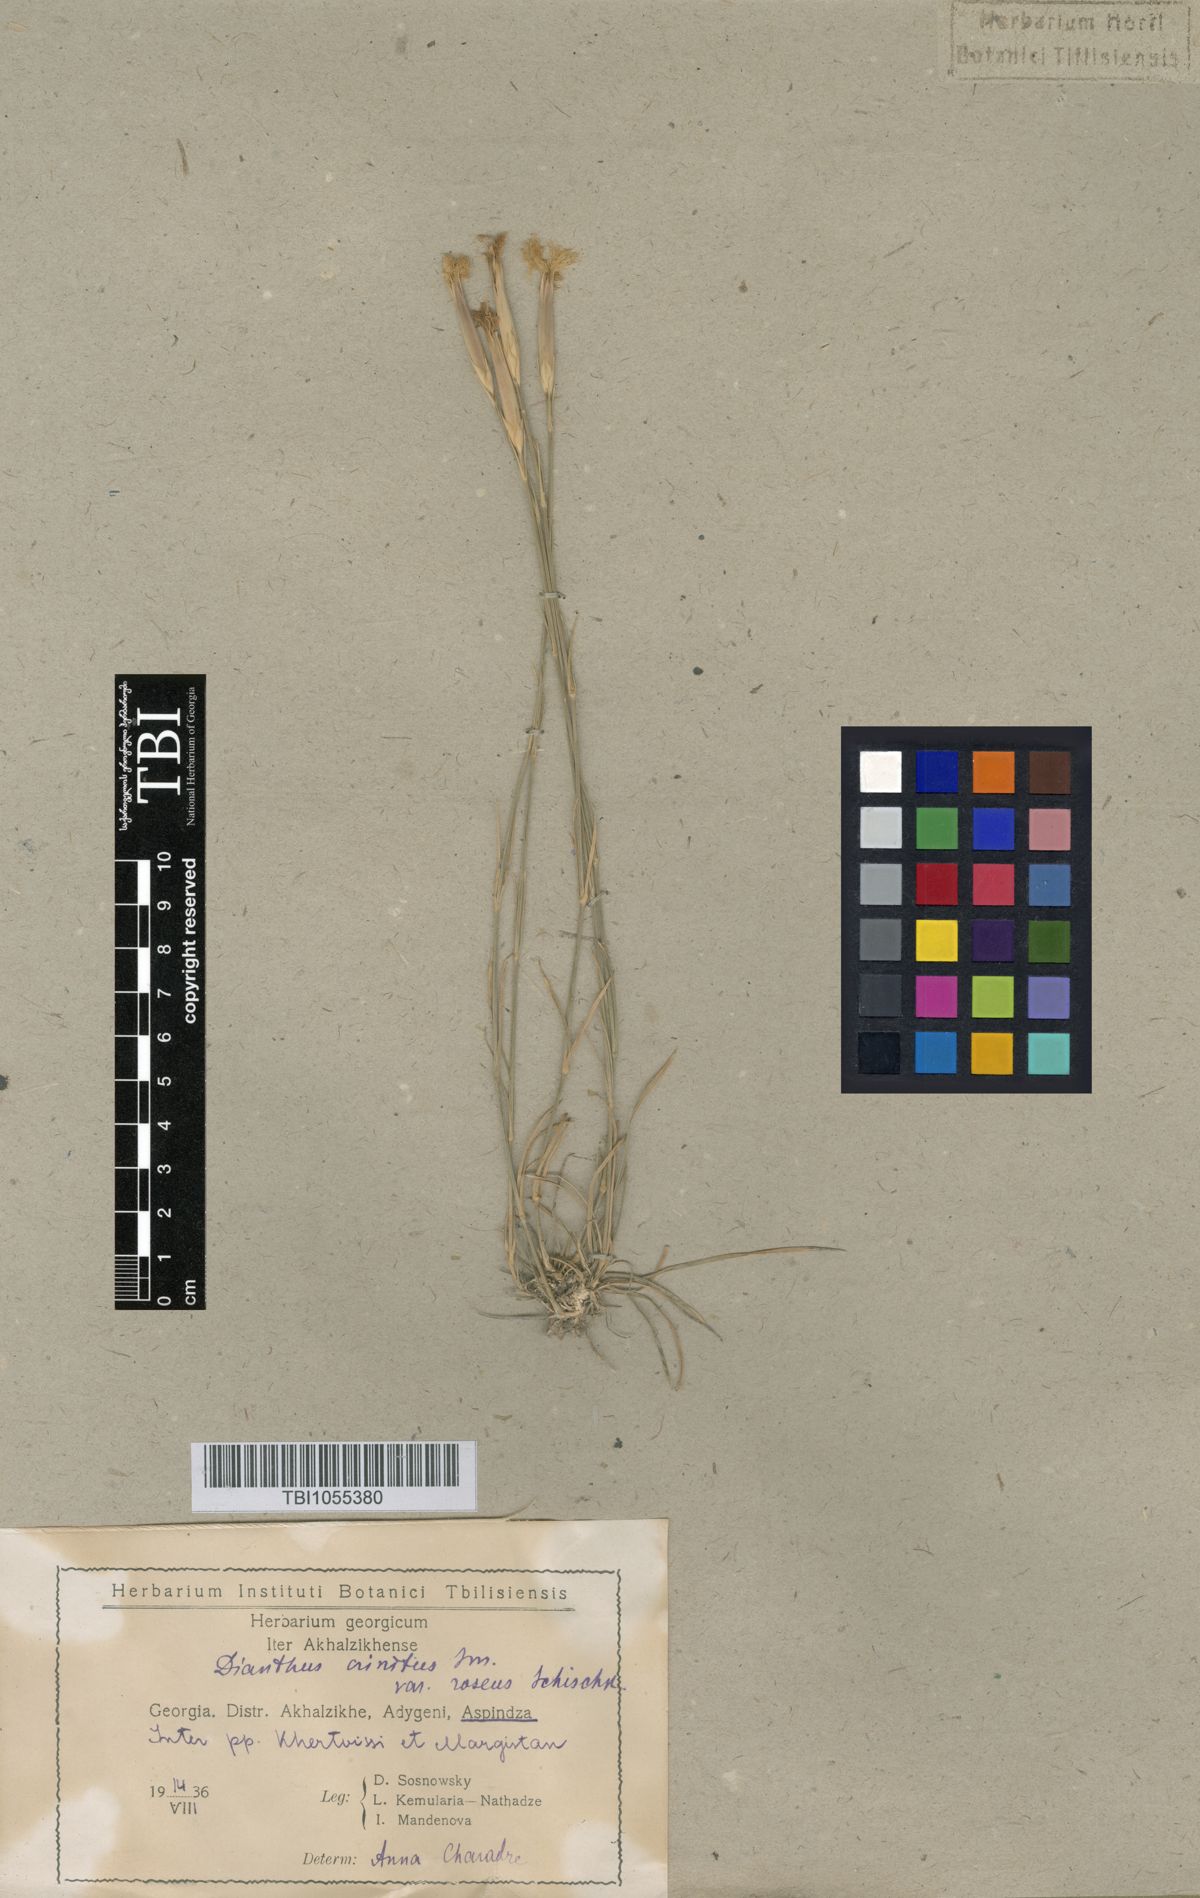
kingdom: Plantae
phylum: Tracheophyta
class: Magnoliopsida
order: Caryophyllales
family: Caryophyllaceae
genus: Dianthus
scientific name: Dianthus crinitus
